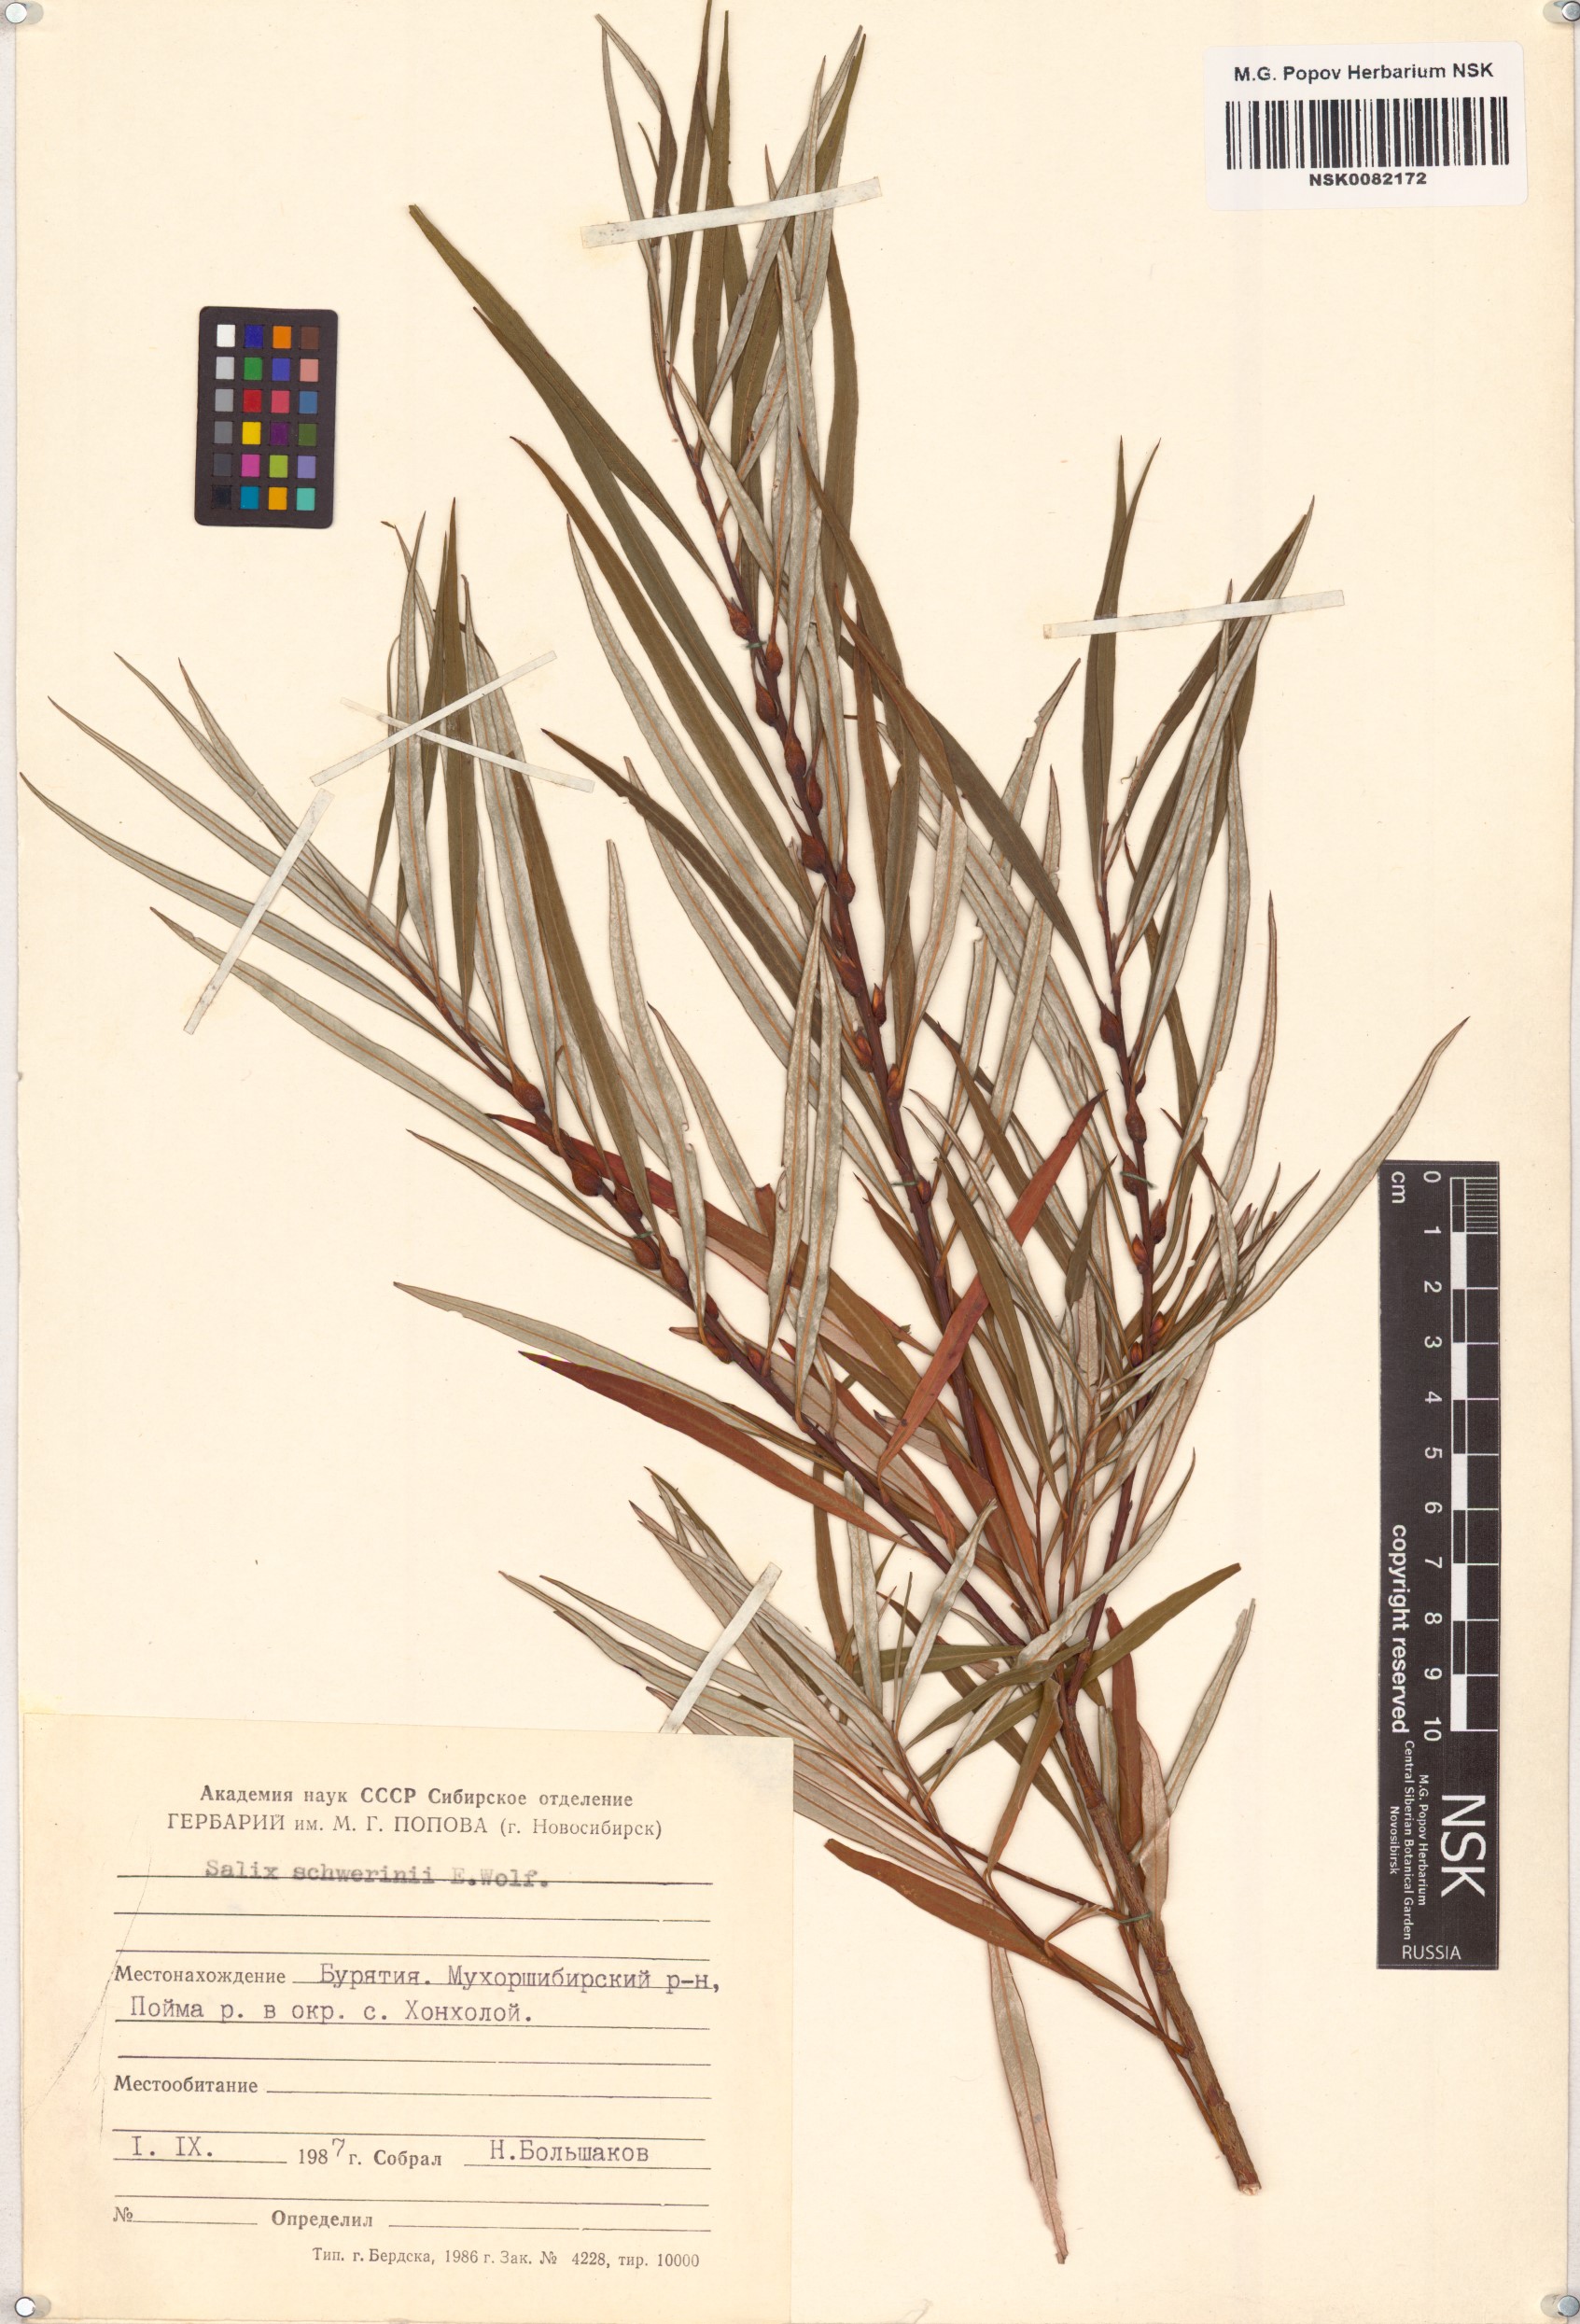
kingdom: Plantae
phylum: Tracheophyta
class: Magnoliopsida
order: Malpighiales
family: Salicaceae
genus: Salix
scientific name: Salix schwerinii
